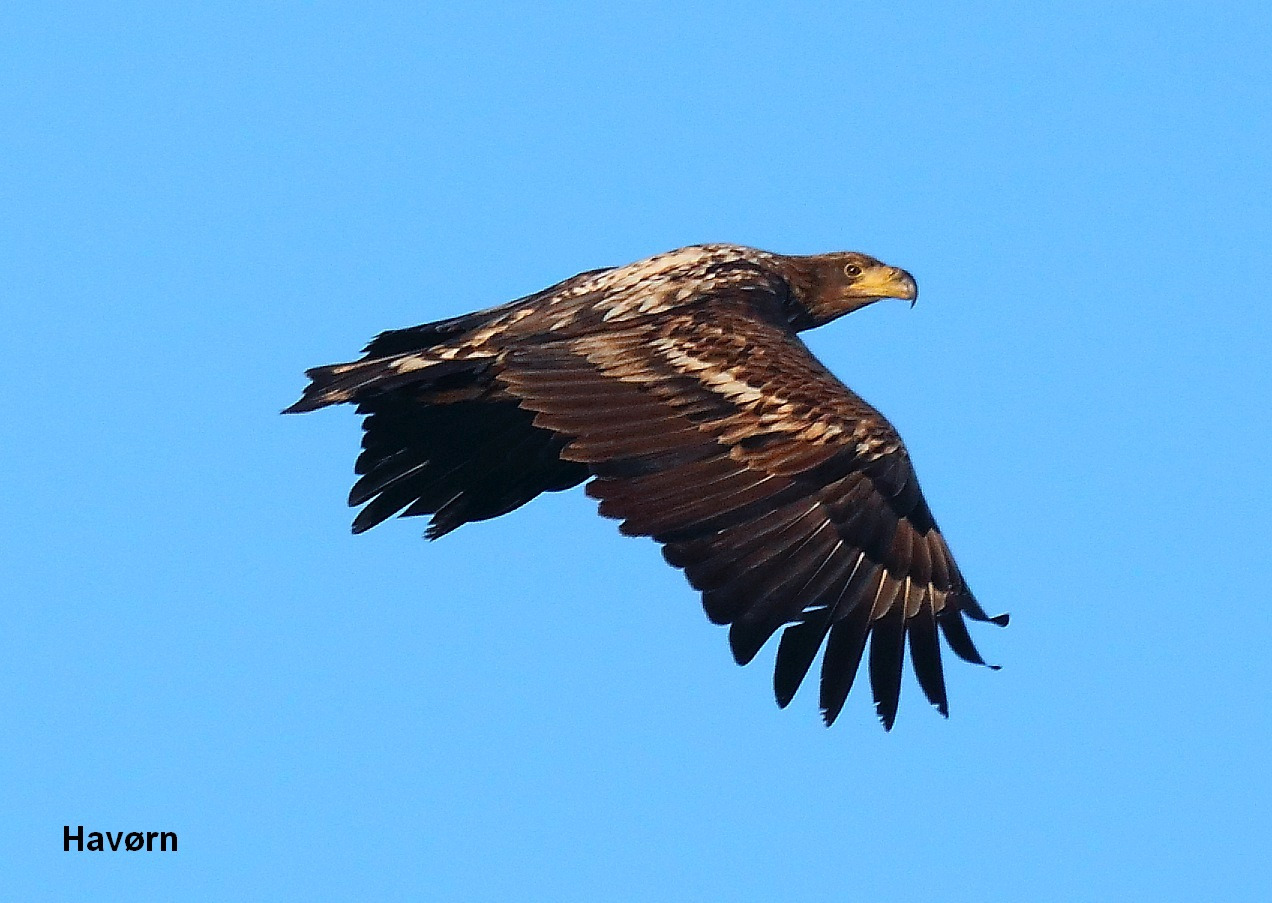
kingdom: Animalia
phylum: Chordata
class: Aves
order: Accipitriformes
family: Accipitridae
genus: Haliaeetus
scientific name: Haliaeetus albicilla
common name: Havørn
